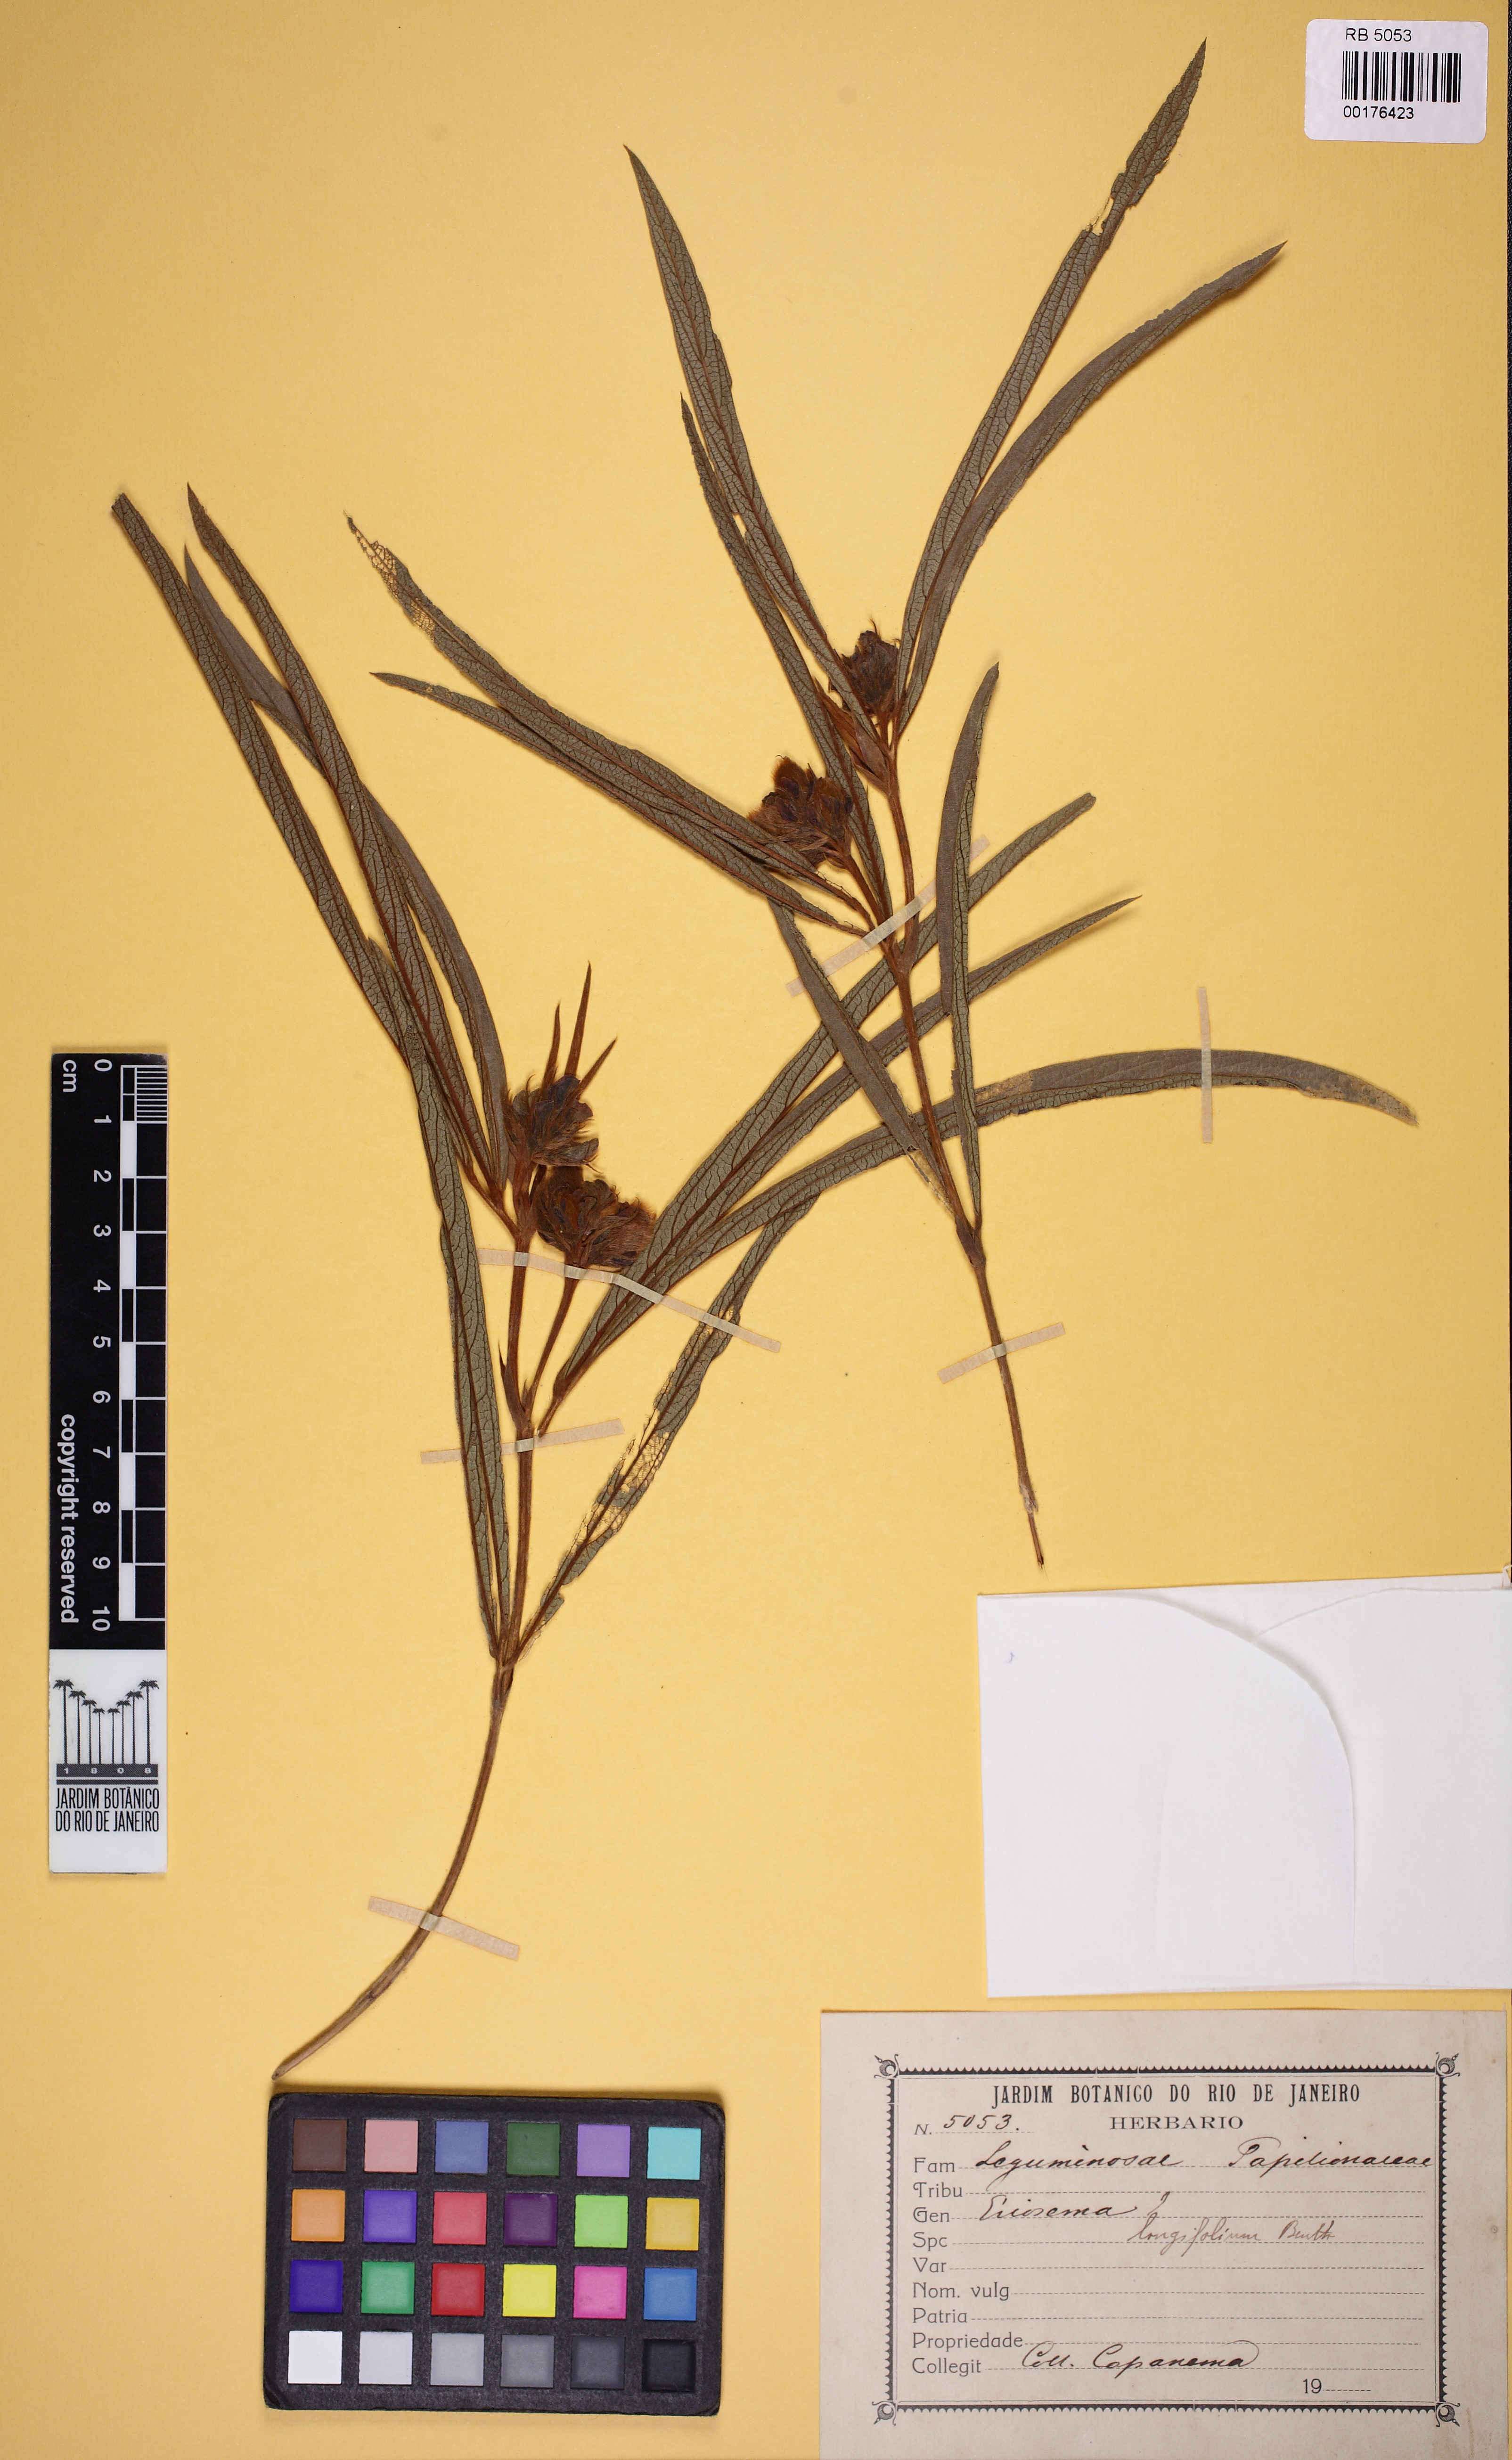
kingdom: Plantae
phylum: Tracheophyta
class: Magnoliopsida
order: Fabales
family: Fabaceae
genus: Eriosema
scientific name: Eriosema longiflorum
